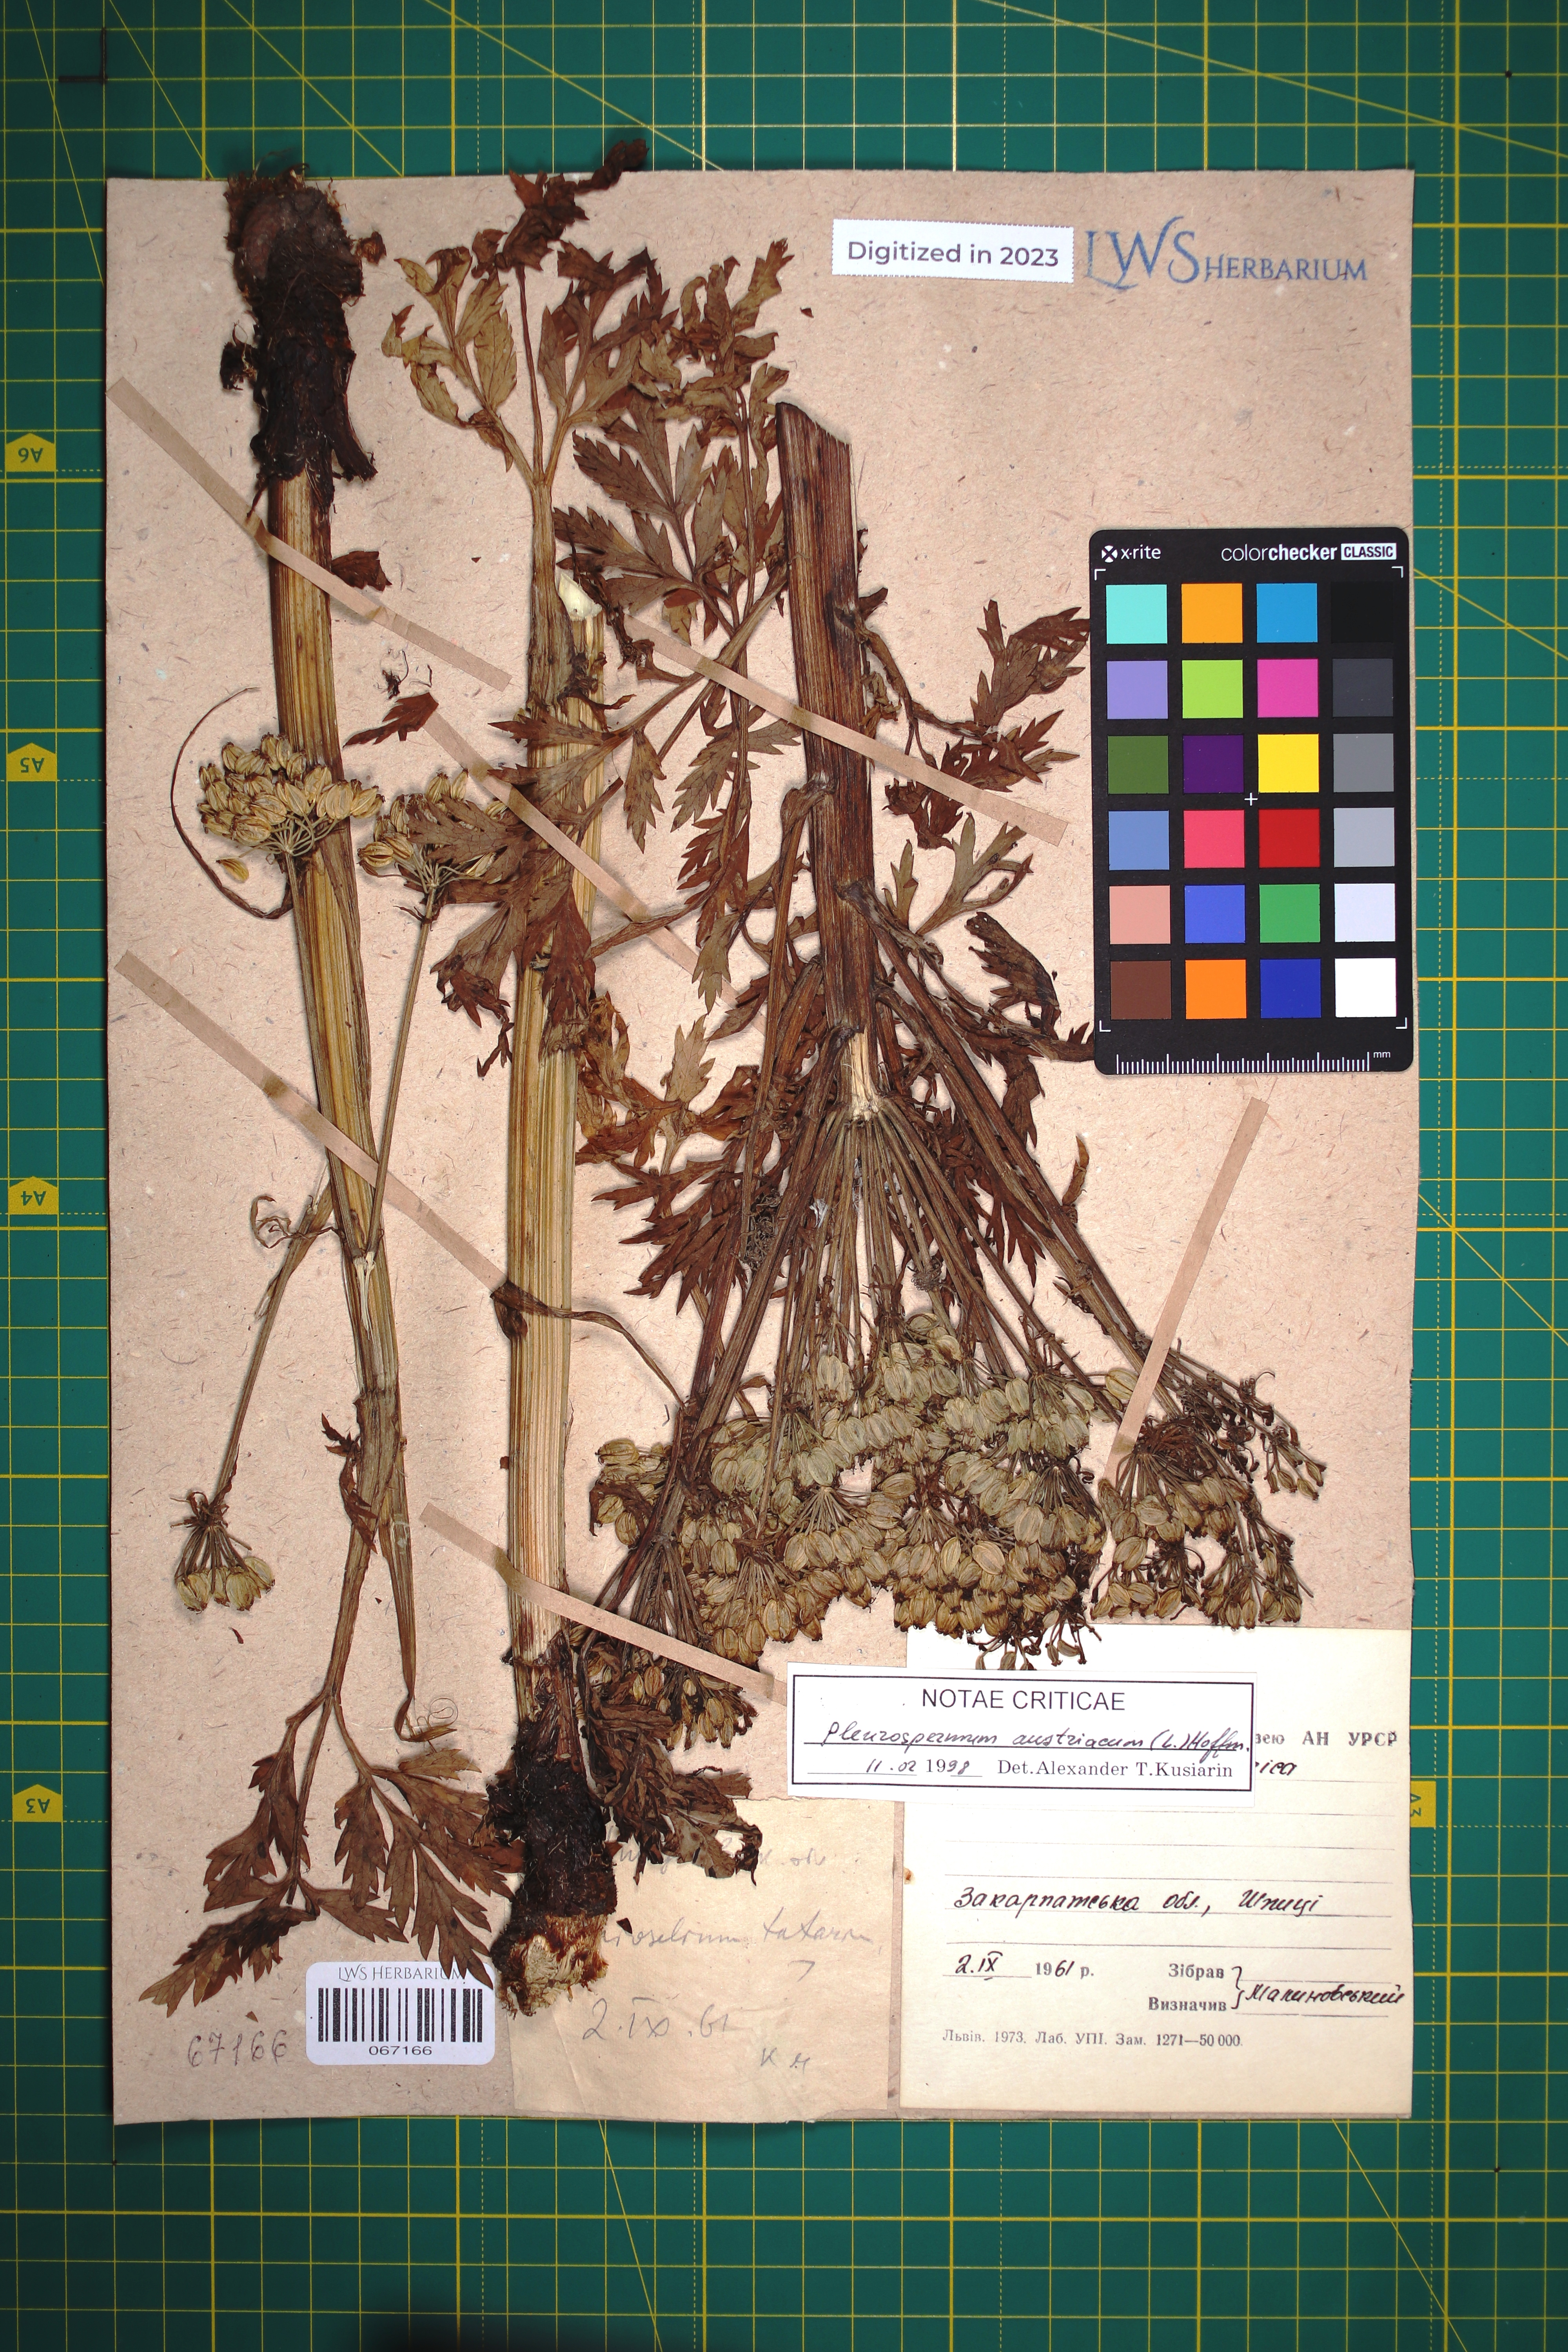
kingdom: Plantae
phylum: Tracheophyta
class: Magnoliopsida
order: Apiales
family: Apiaceae
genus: Pleurospermum
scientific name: Pleurospermum austriacum
